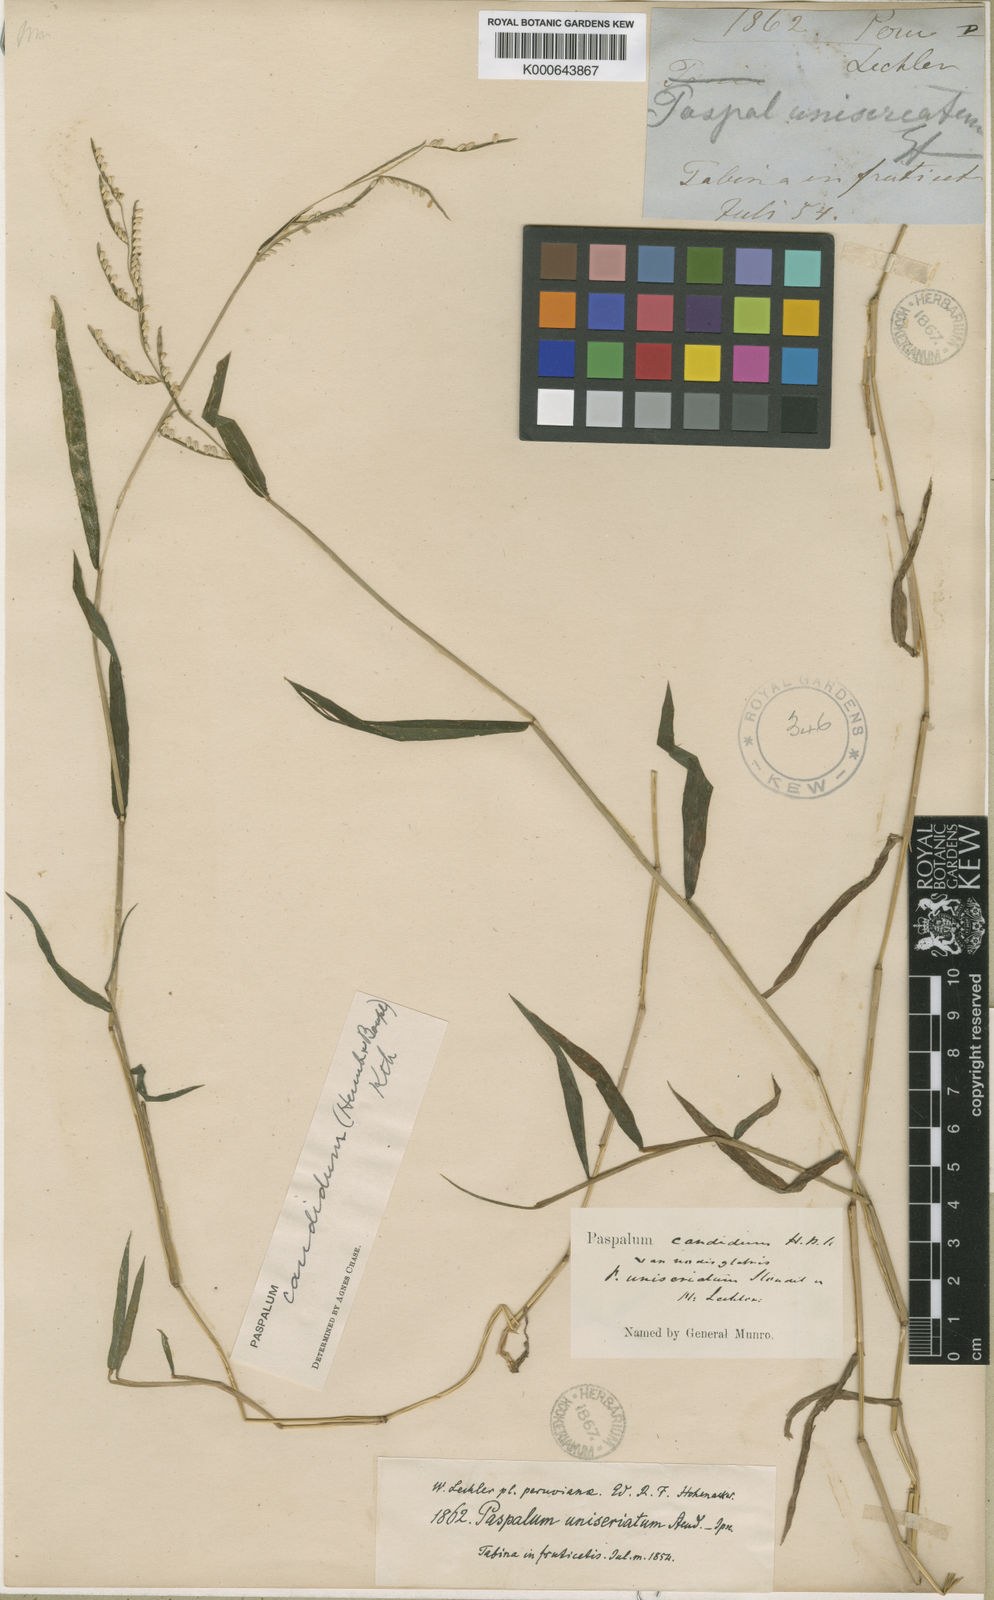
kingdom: Plantae
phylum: Tracheophyta
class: Liliopsida
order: Poales
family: Poaceae
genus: Paspalum
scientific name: Paspalum
